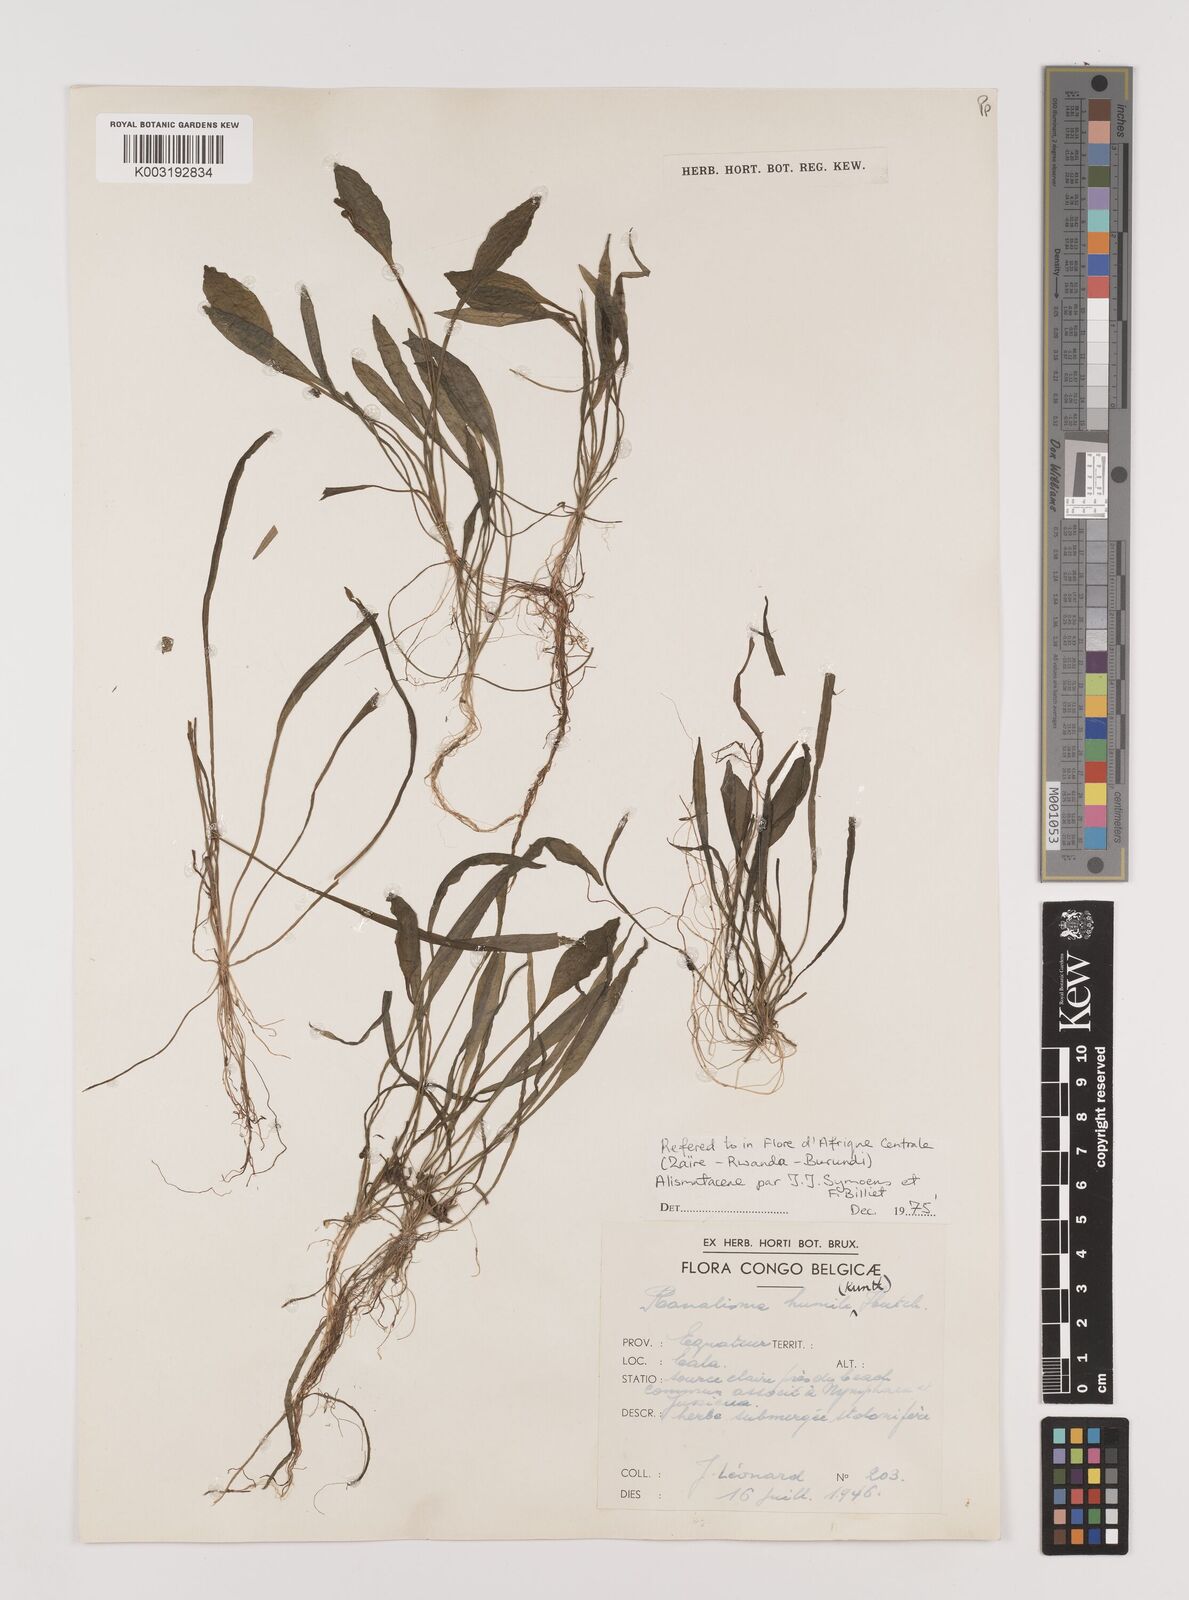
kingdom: Plantae
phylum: Tracheophyta
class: Liliopsida
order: Alismatales
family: Alismataceae
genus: Ranalisma
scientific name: Ranalisma humile
